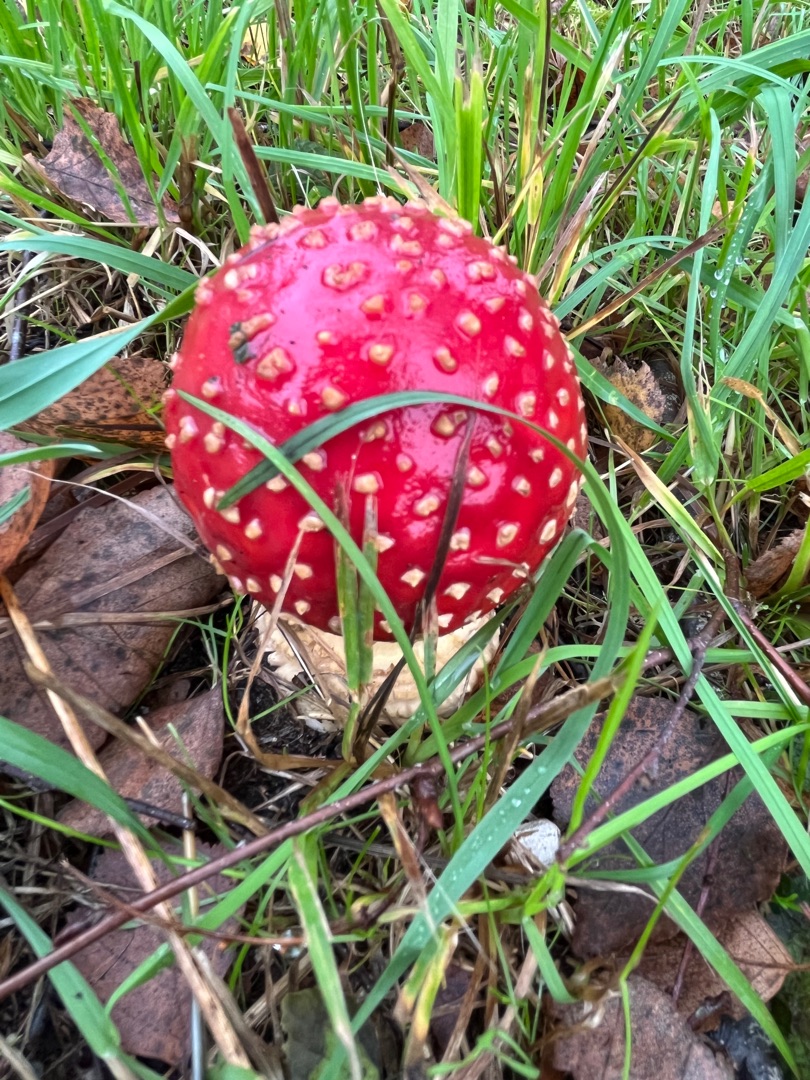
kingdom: Fungi
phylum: Basidiomycota
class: Agaricomycetes
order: Agaricales
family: Amanitaceae
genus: Amanita
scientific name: Amanita muscaria
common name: Rød fluesvamp
